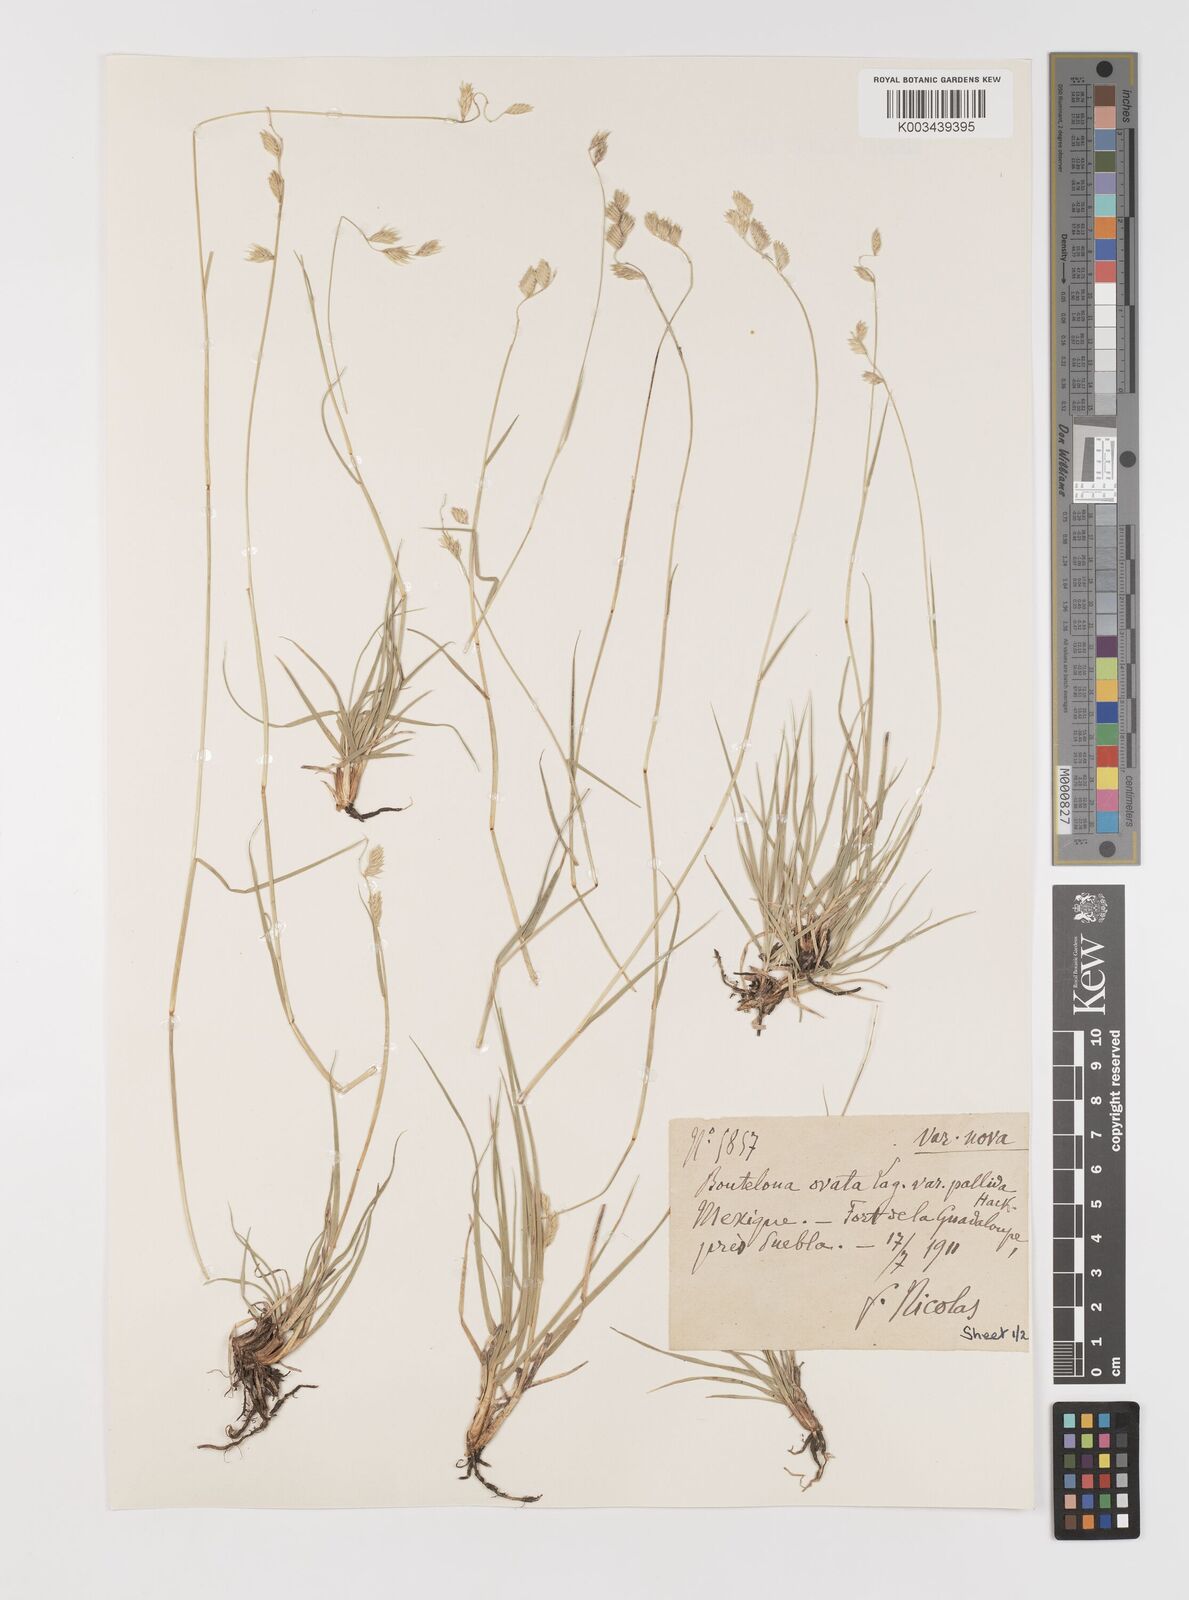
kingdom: Plantae
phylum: Tracheophyta
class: Liliopsida
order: Poales
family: Poaceae
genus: Bouteloua
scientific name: Bouteloua chondrosioides
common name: Sprucetop grama
